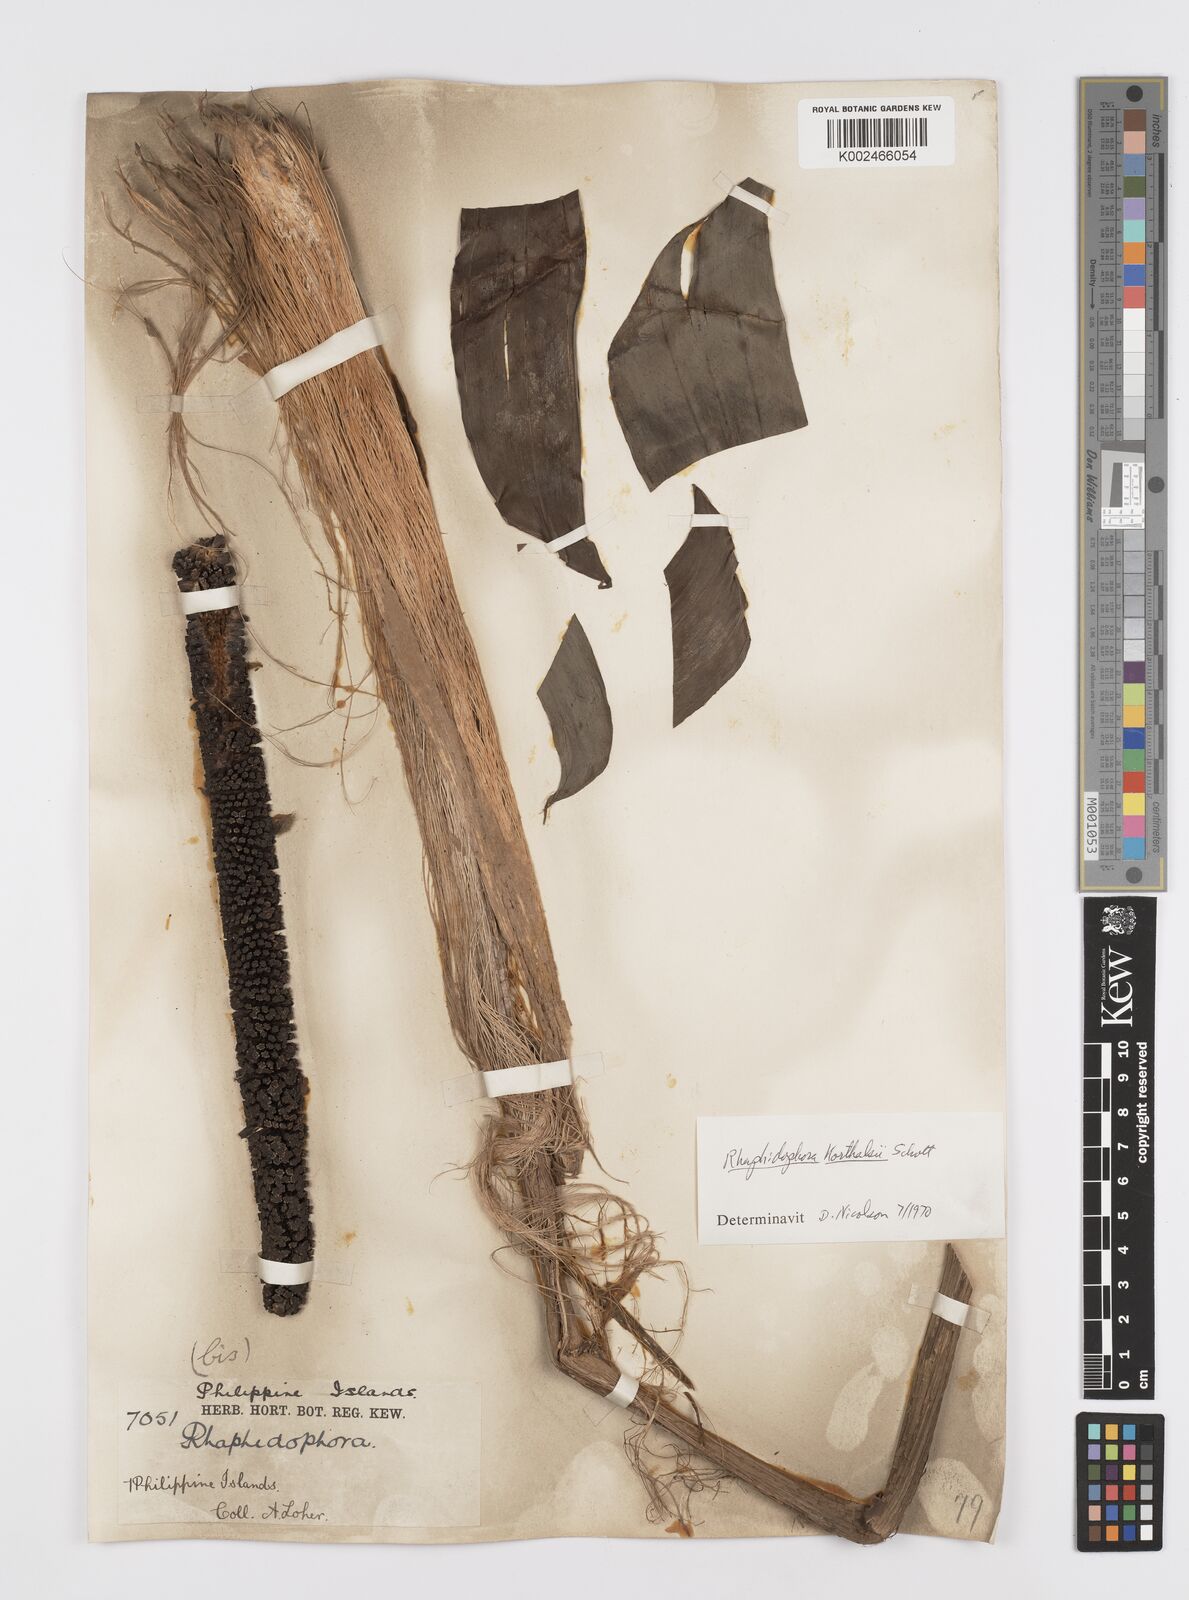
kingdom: Plantae
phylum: Tracheophyta
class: Liliopsida
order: Alismatales
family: Araceae
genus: Rhaphidophora
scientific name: Rhaphidophora korthalsii
